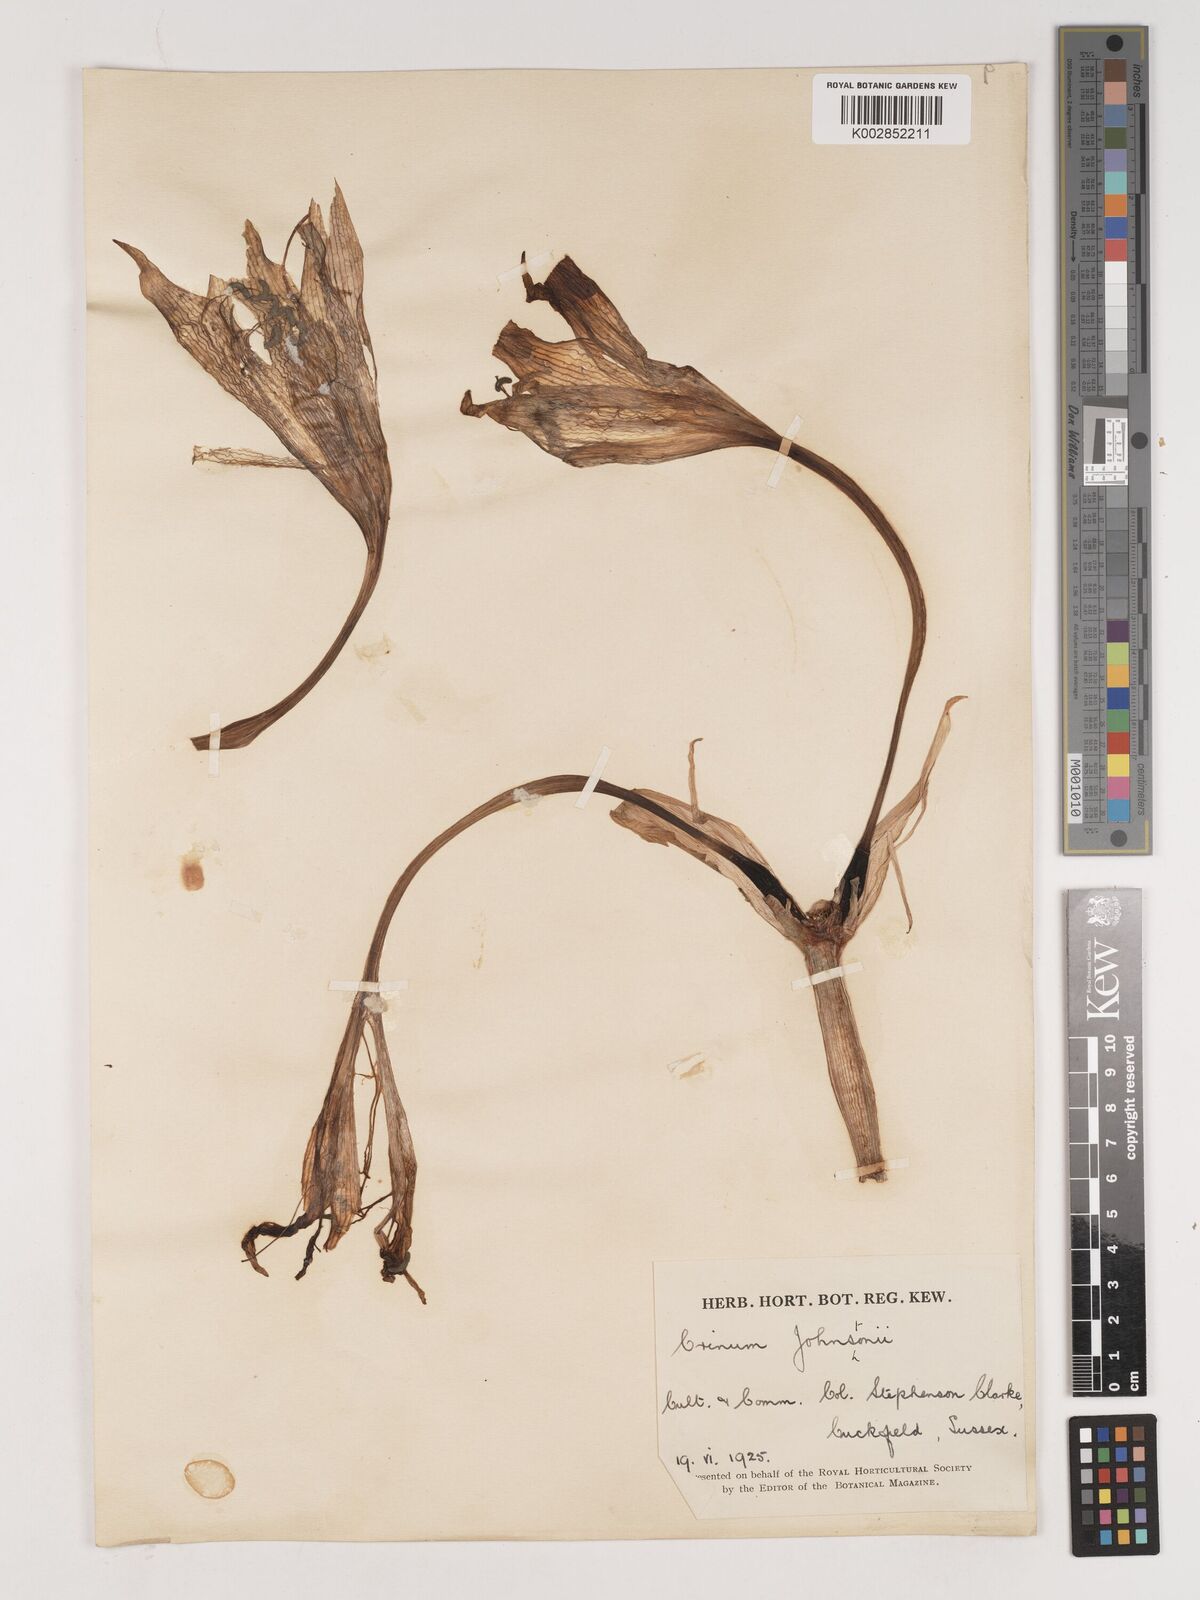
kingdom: Plantae
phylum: Tracheophyta
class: Liliopsida
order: Asparagales
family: Amaryllidaceae
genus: Crinum
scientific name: Crinum kirkii
